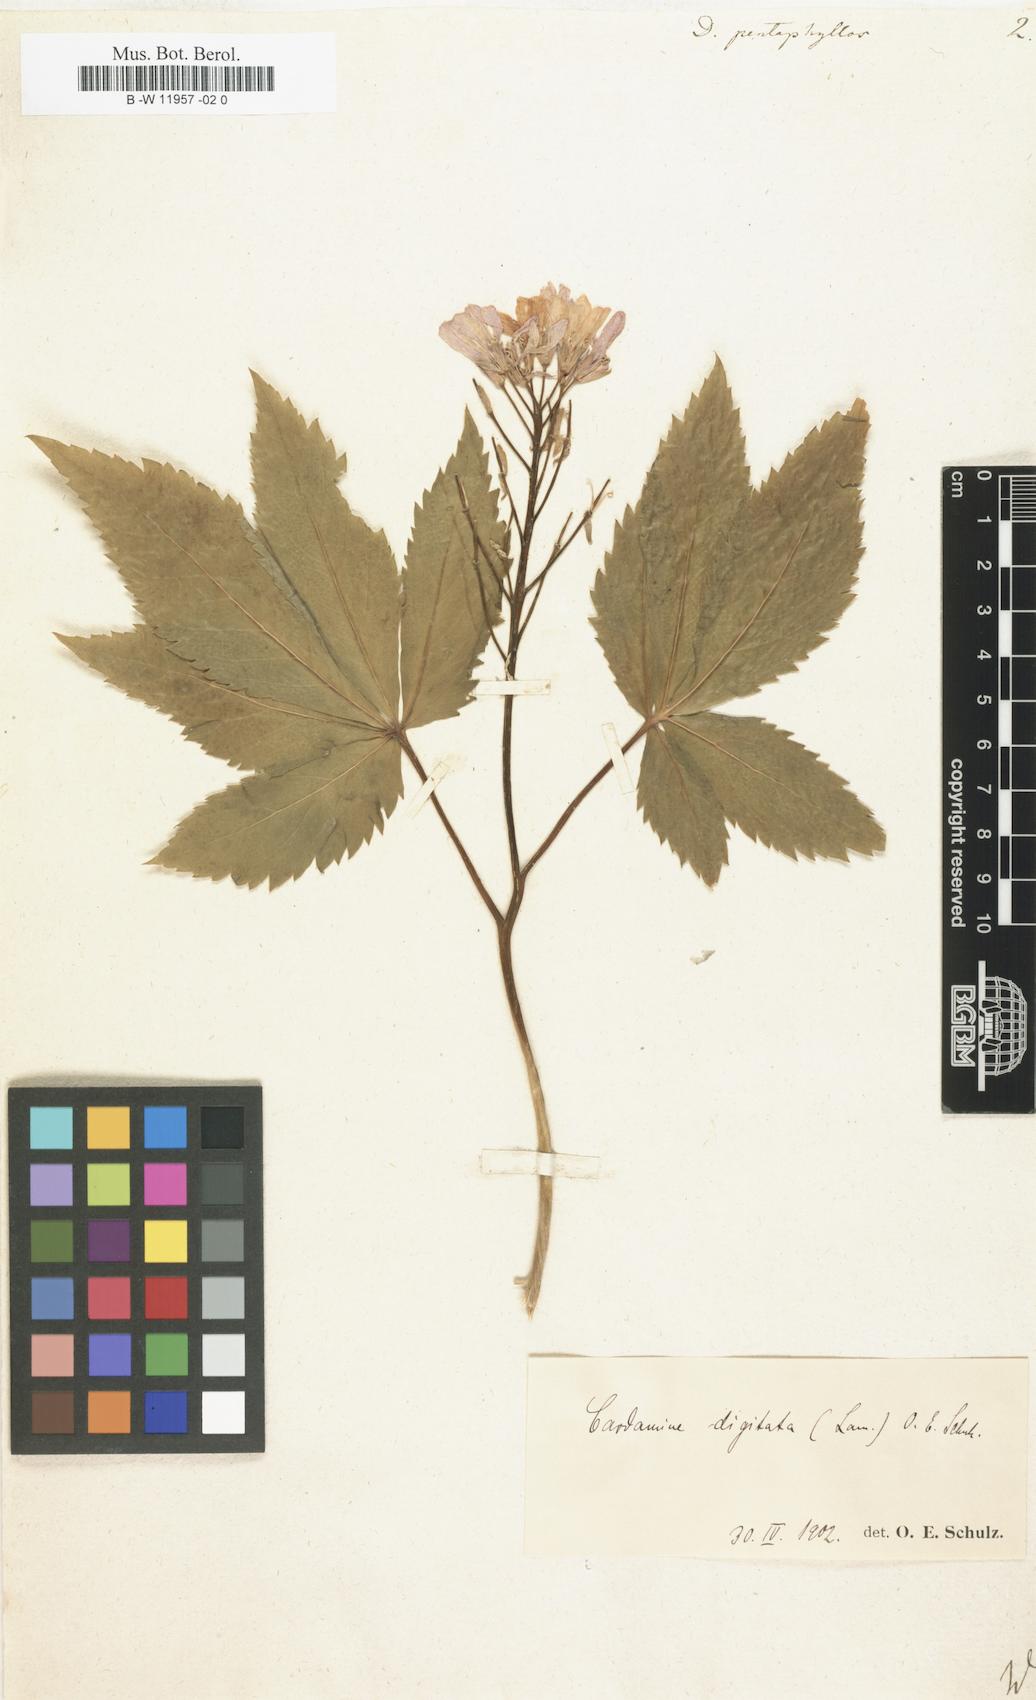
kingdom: Plantae
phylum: Tracheophyta
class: Magnoliopsida
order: Brassicales
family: Brassicaceae
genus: Cardamine
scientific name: Cardamine pentaphyllos
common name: Five-leaflet bitter-cress
